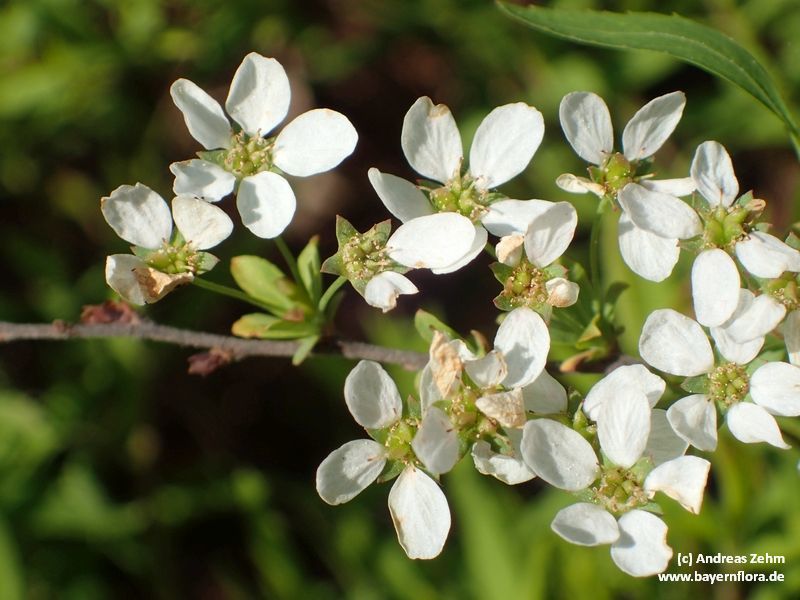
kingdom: Plantae
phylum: Tracheophyta
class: Magnoliopsida
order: Rosales
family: Rosaceae
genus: Spiraea
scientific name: Spiraea arguta
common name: Garland spiraea
